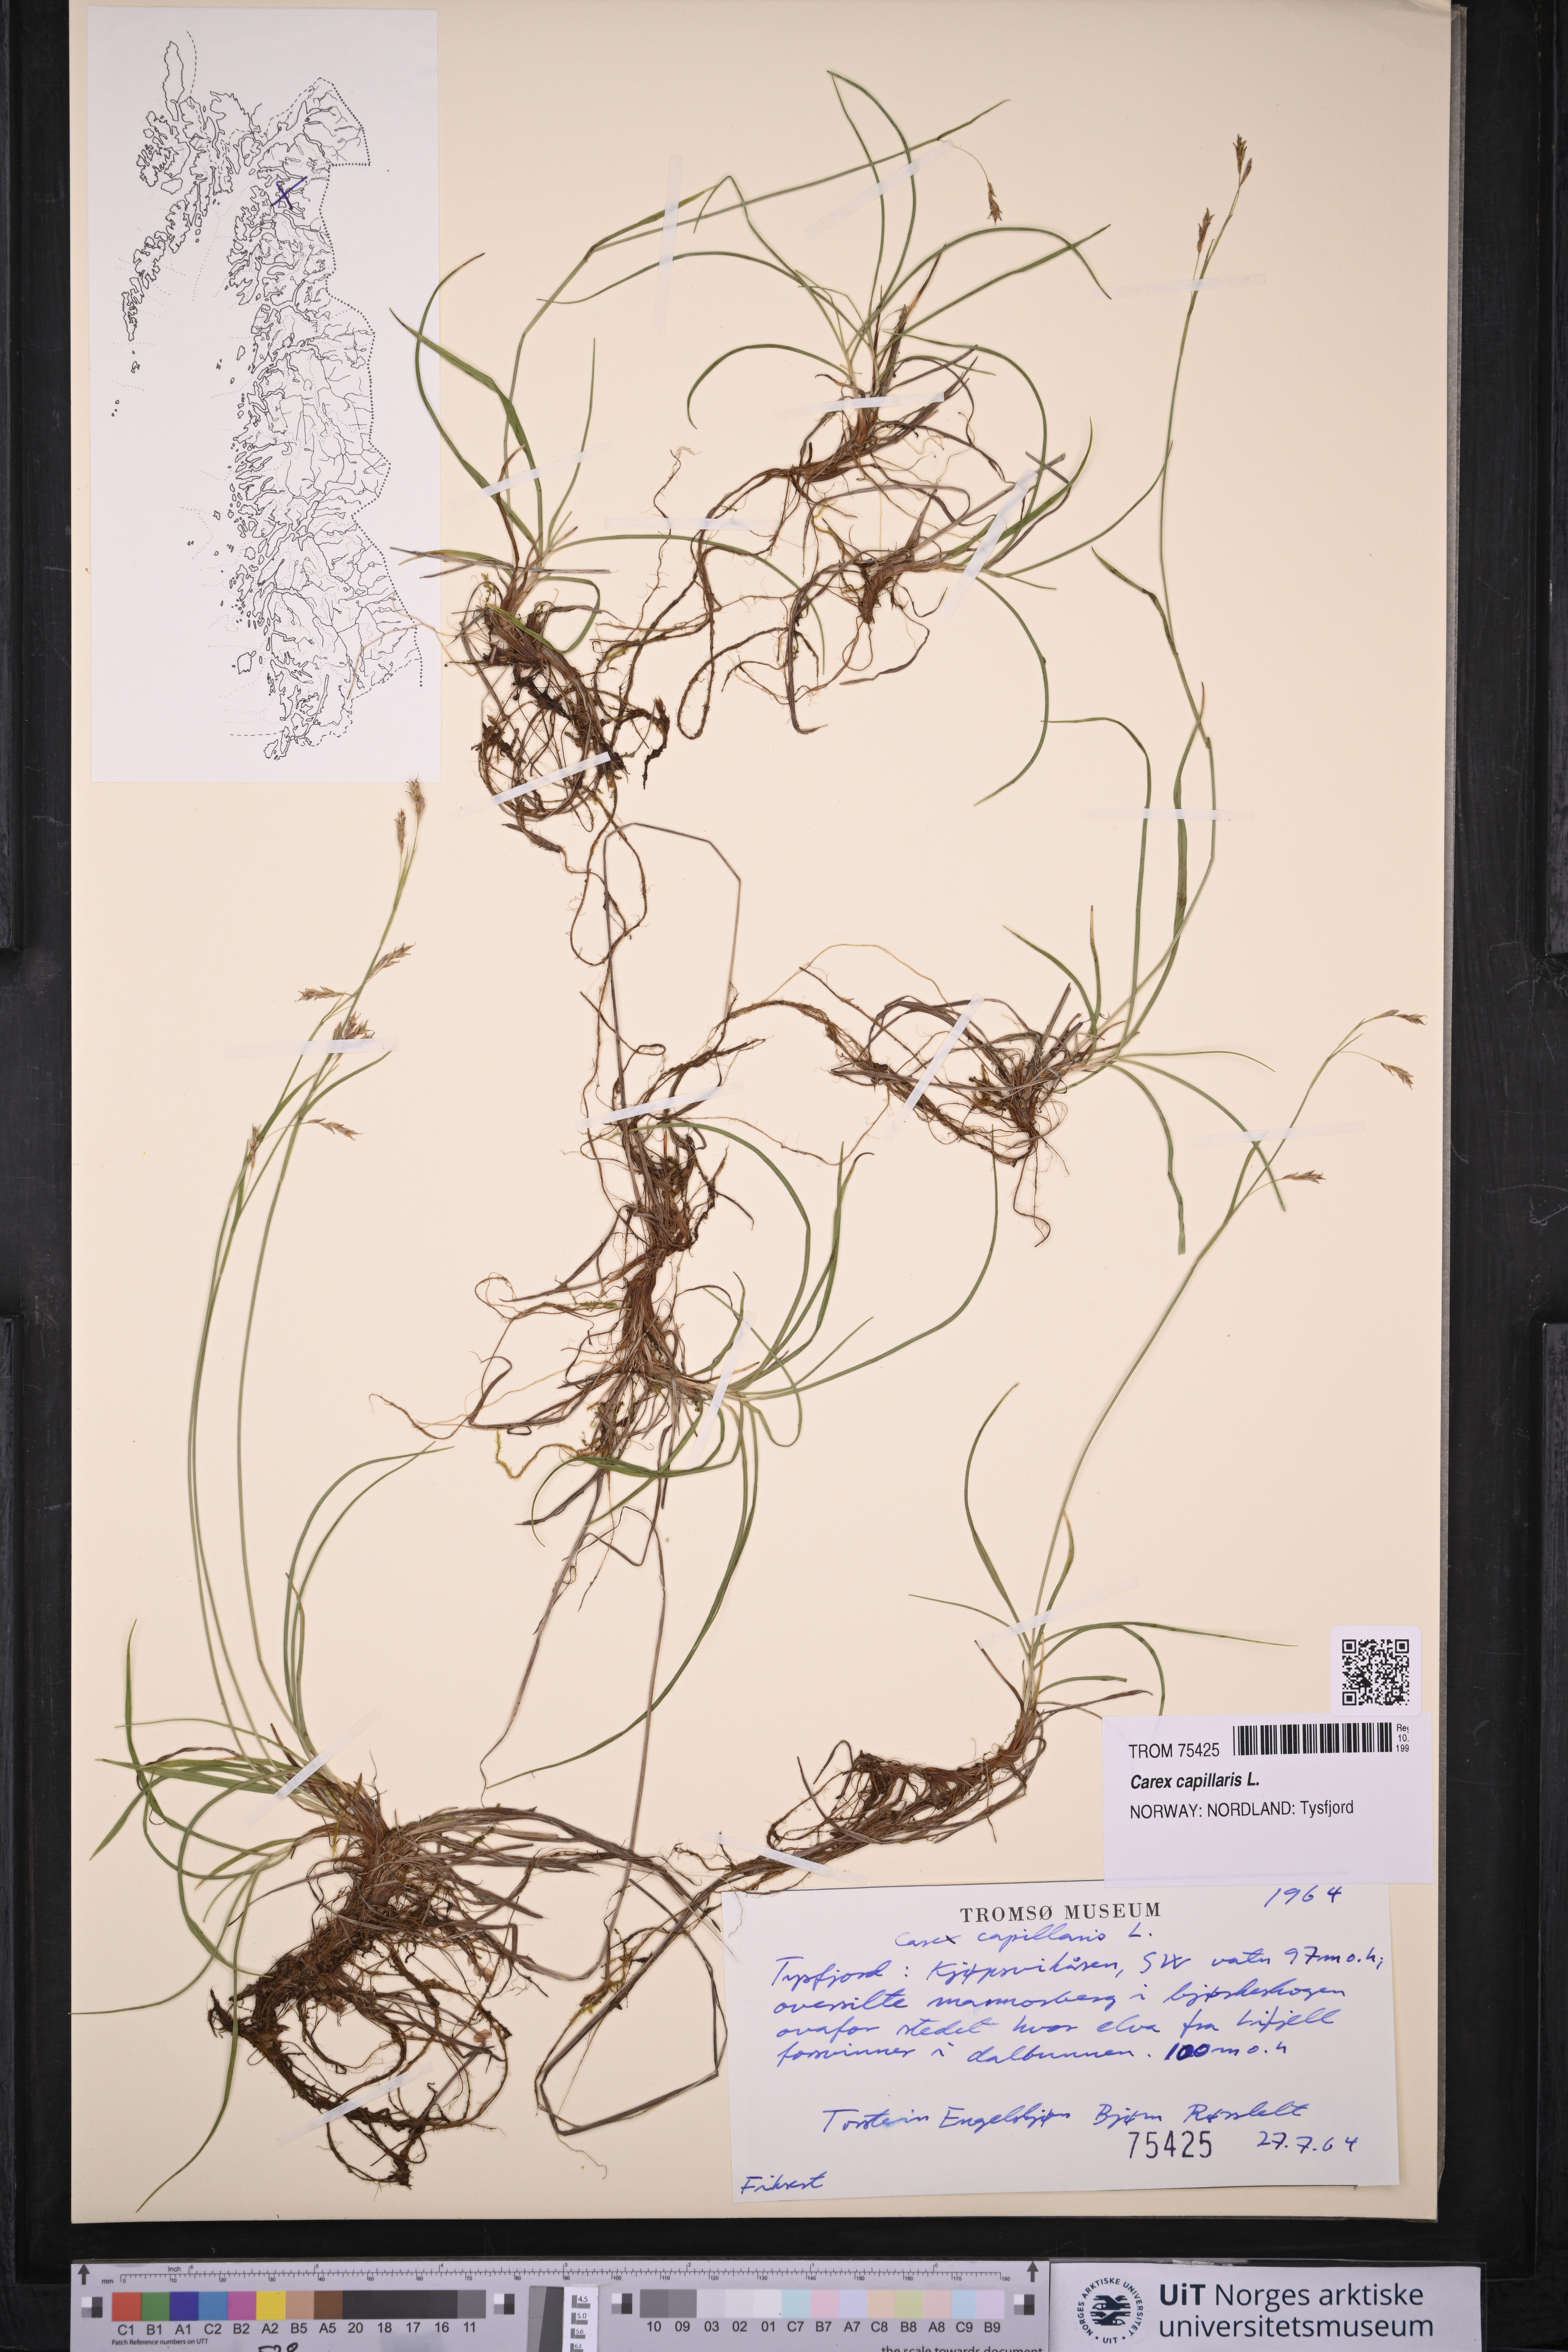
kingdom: Plantae
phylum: Tracheophyta
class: Liliopsida
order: Poales
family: Cyperaceae
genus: Carex
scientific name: Carex capillaris
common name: Hair sedge
